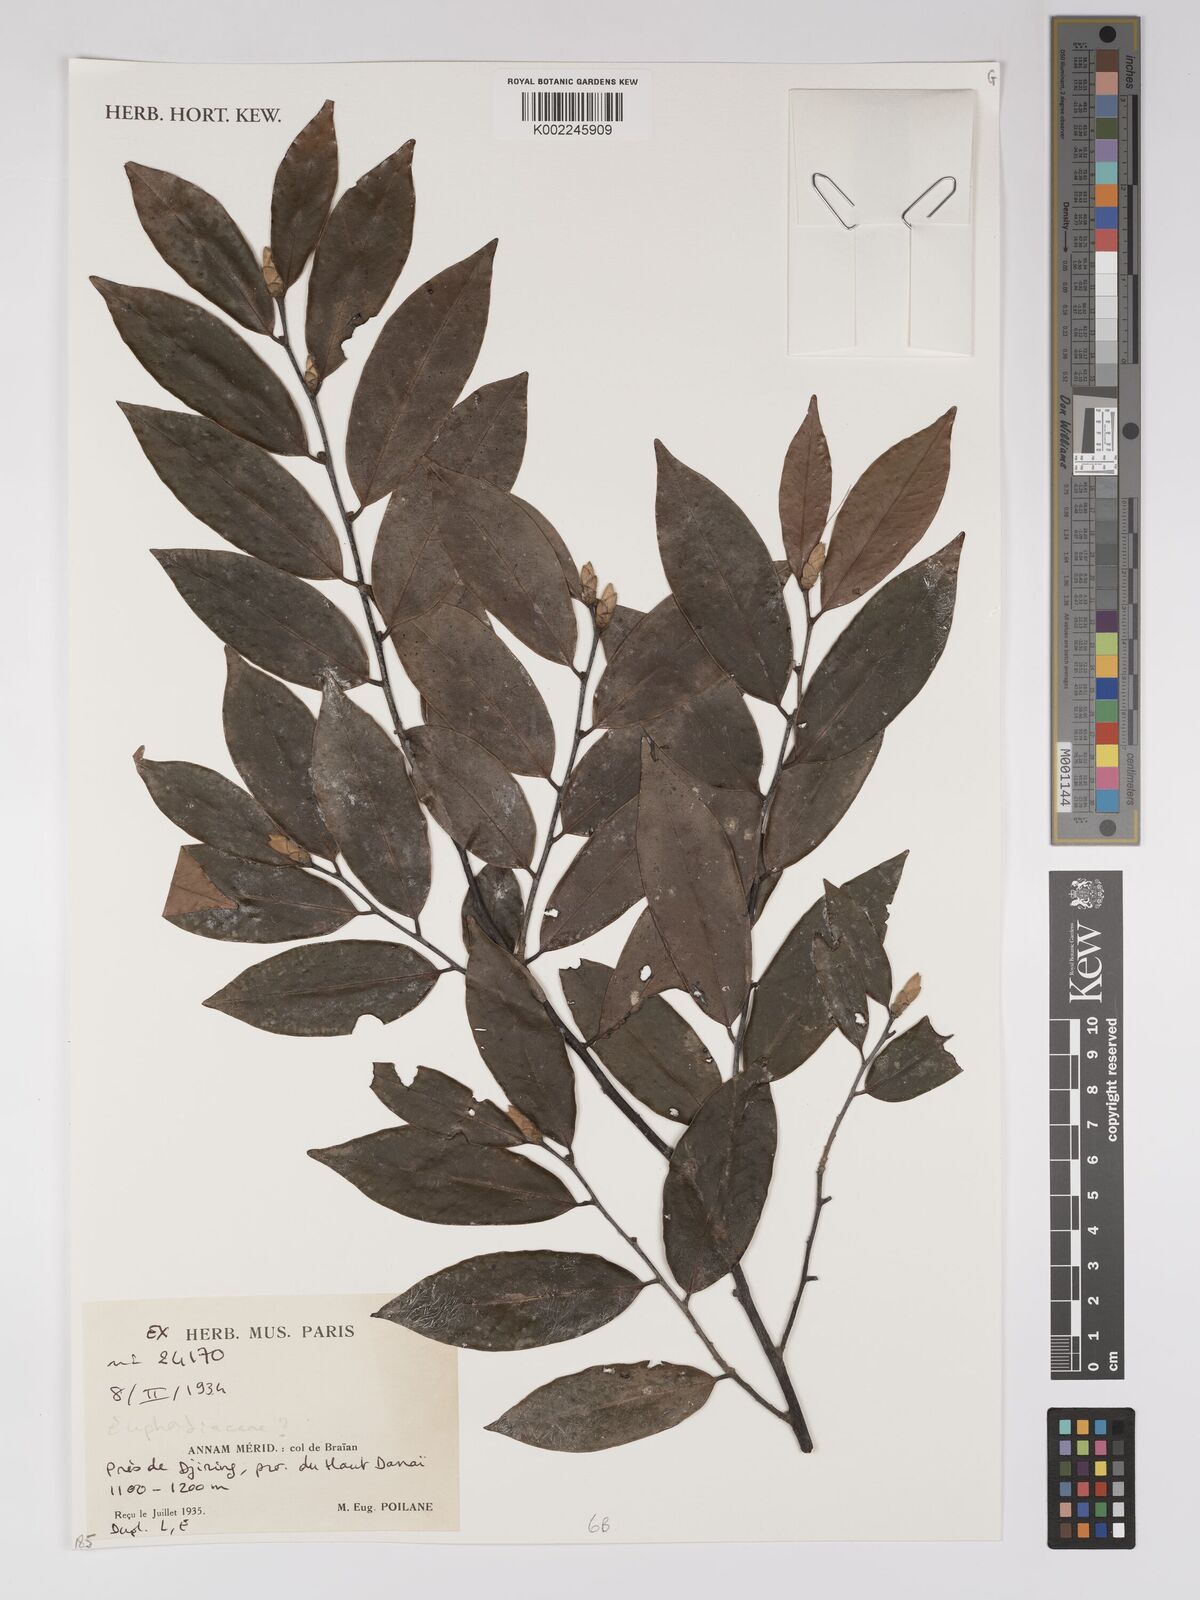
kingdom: Plantae
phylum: Tracheophyta
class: Magnoliopsida
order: Malpighiales
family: Euphorbiaceae
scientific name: Euphorbiaceae
